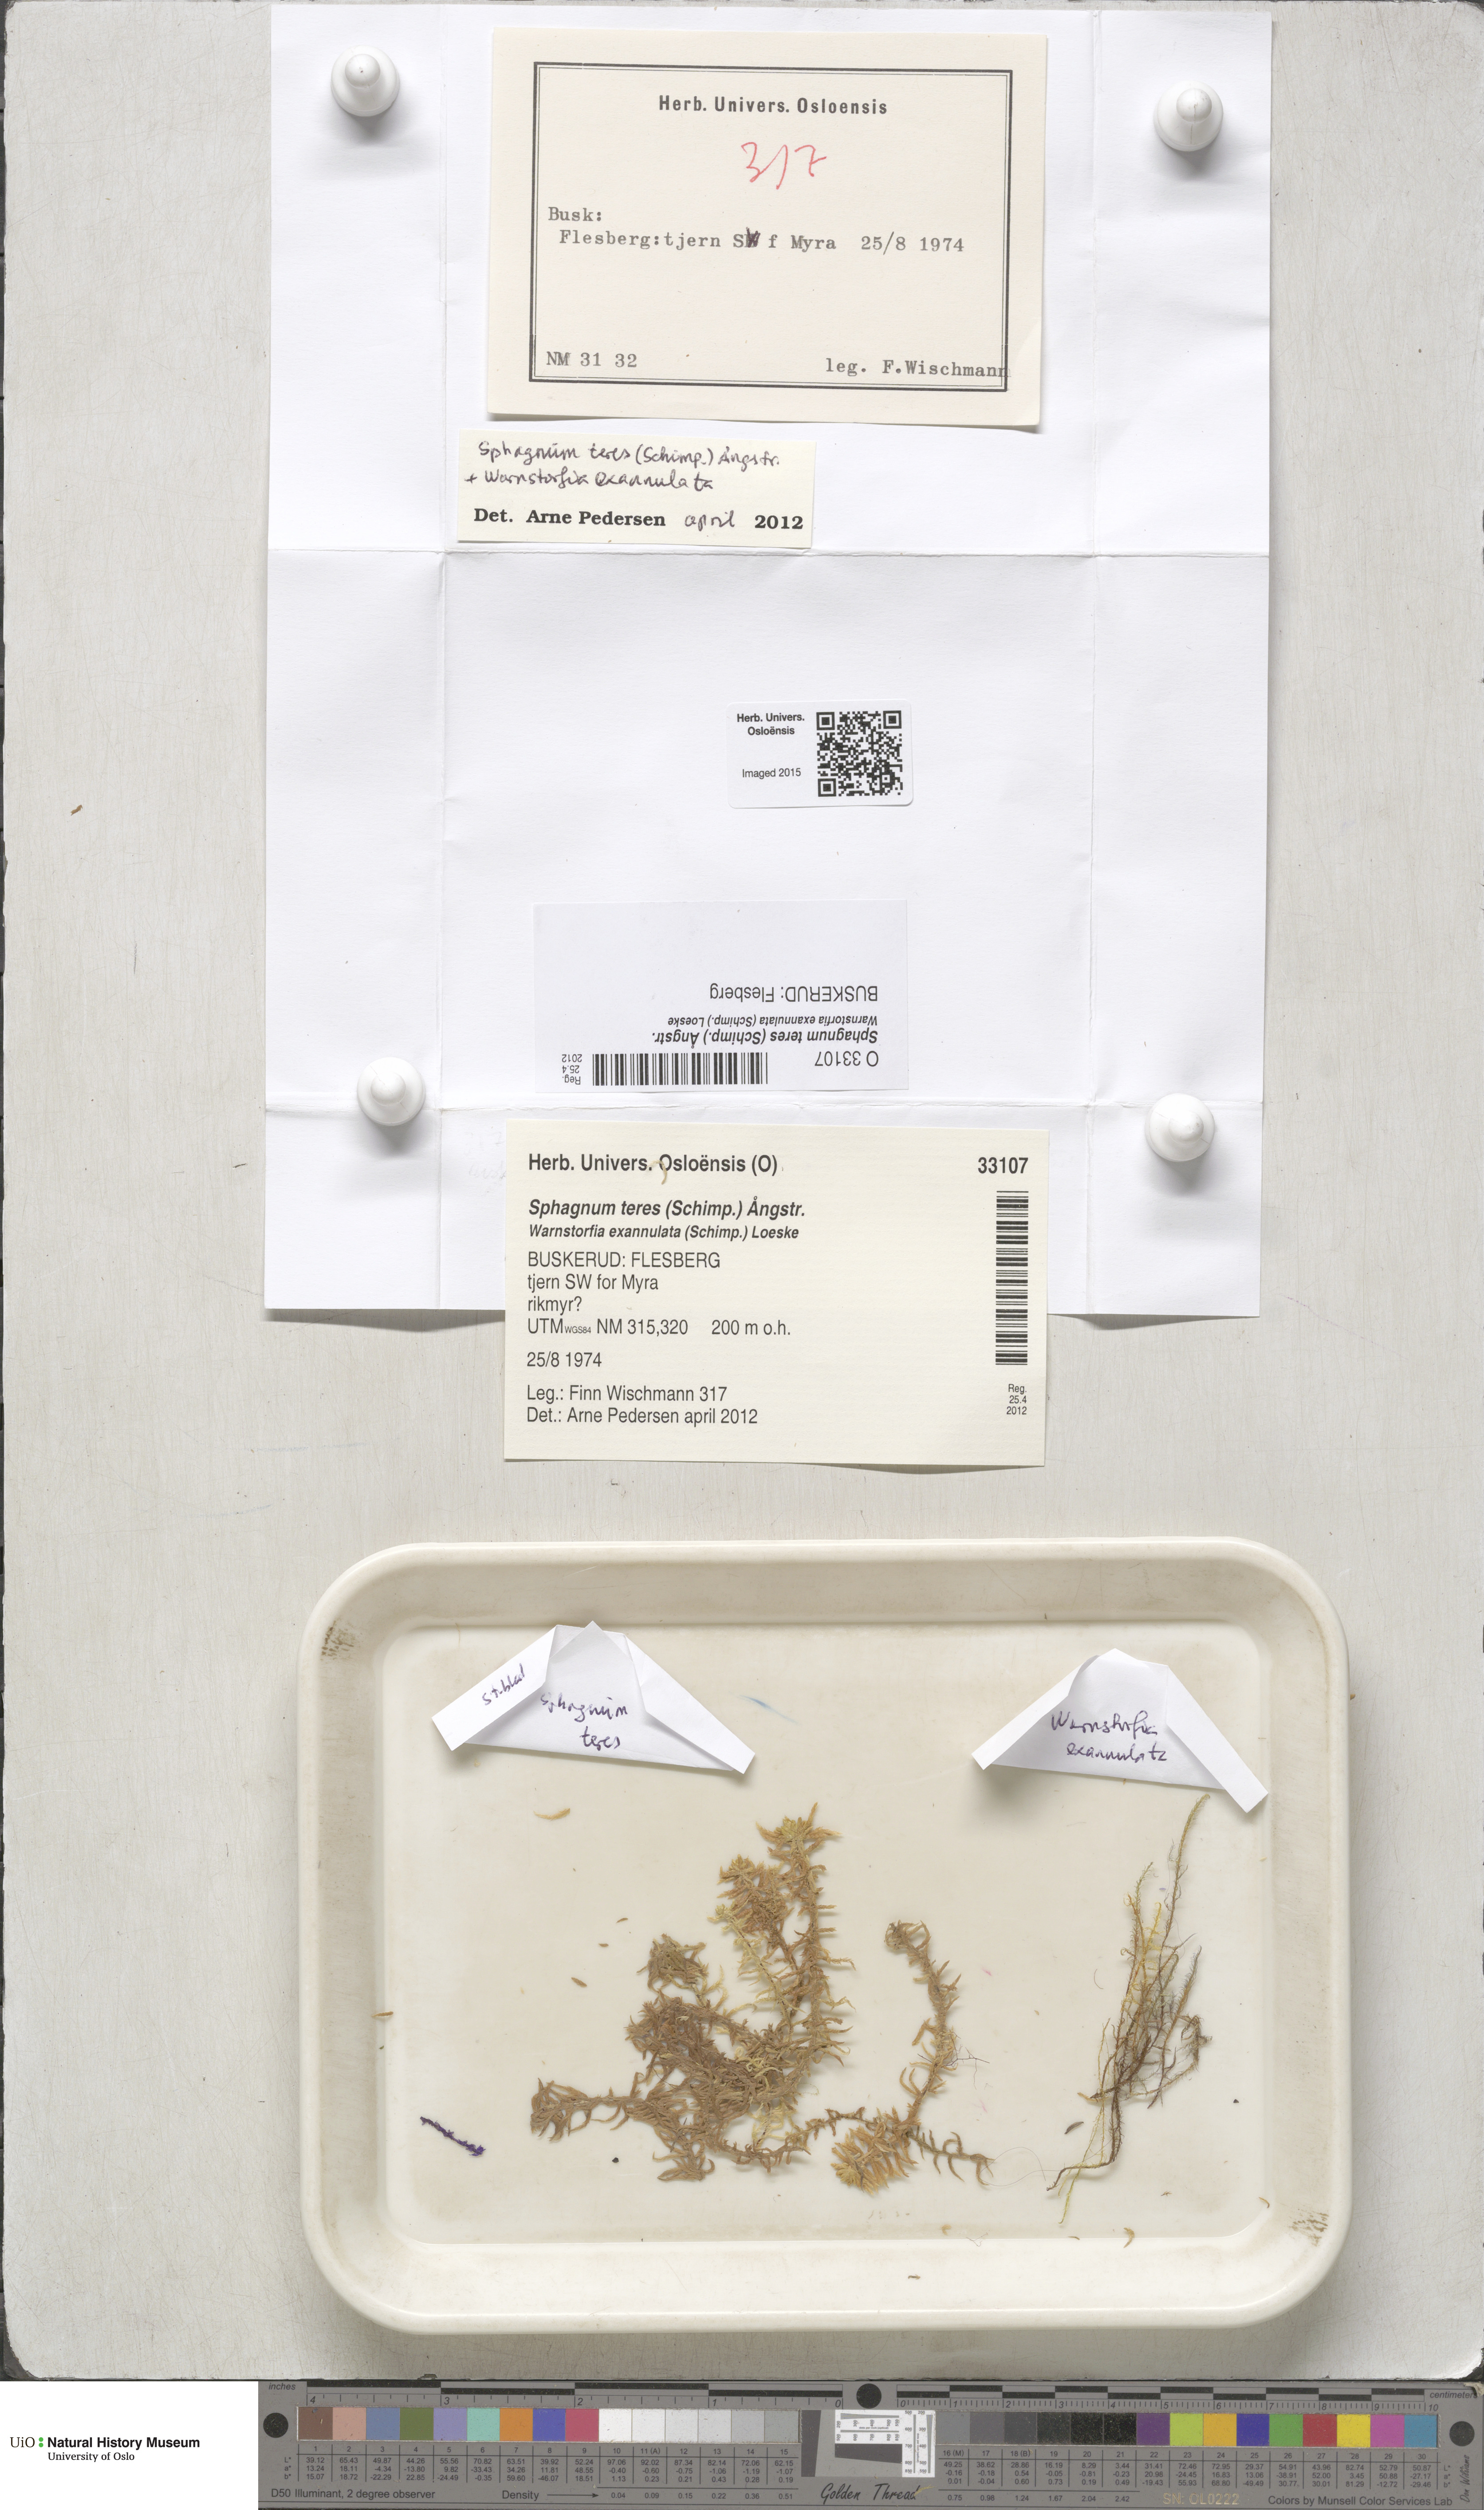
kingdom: Plantae
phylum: Bryophyta
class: Sphagnopsida
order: Sphagnales
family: Sphagnaceae
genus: Sphagnum
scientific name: Sphagnum teres
